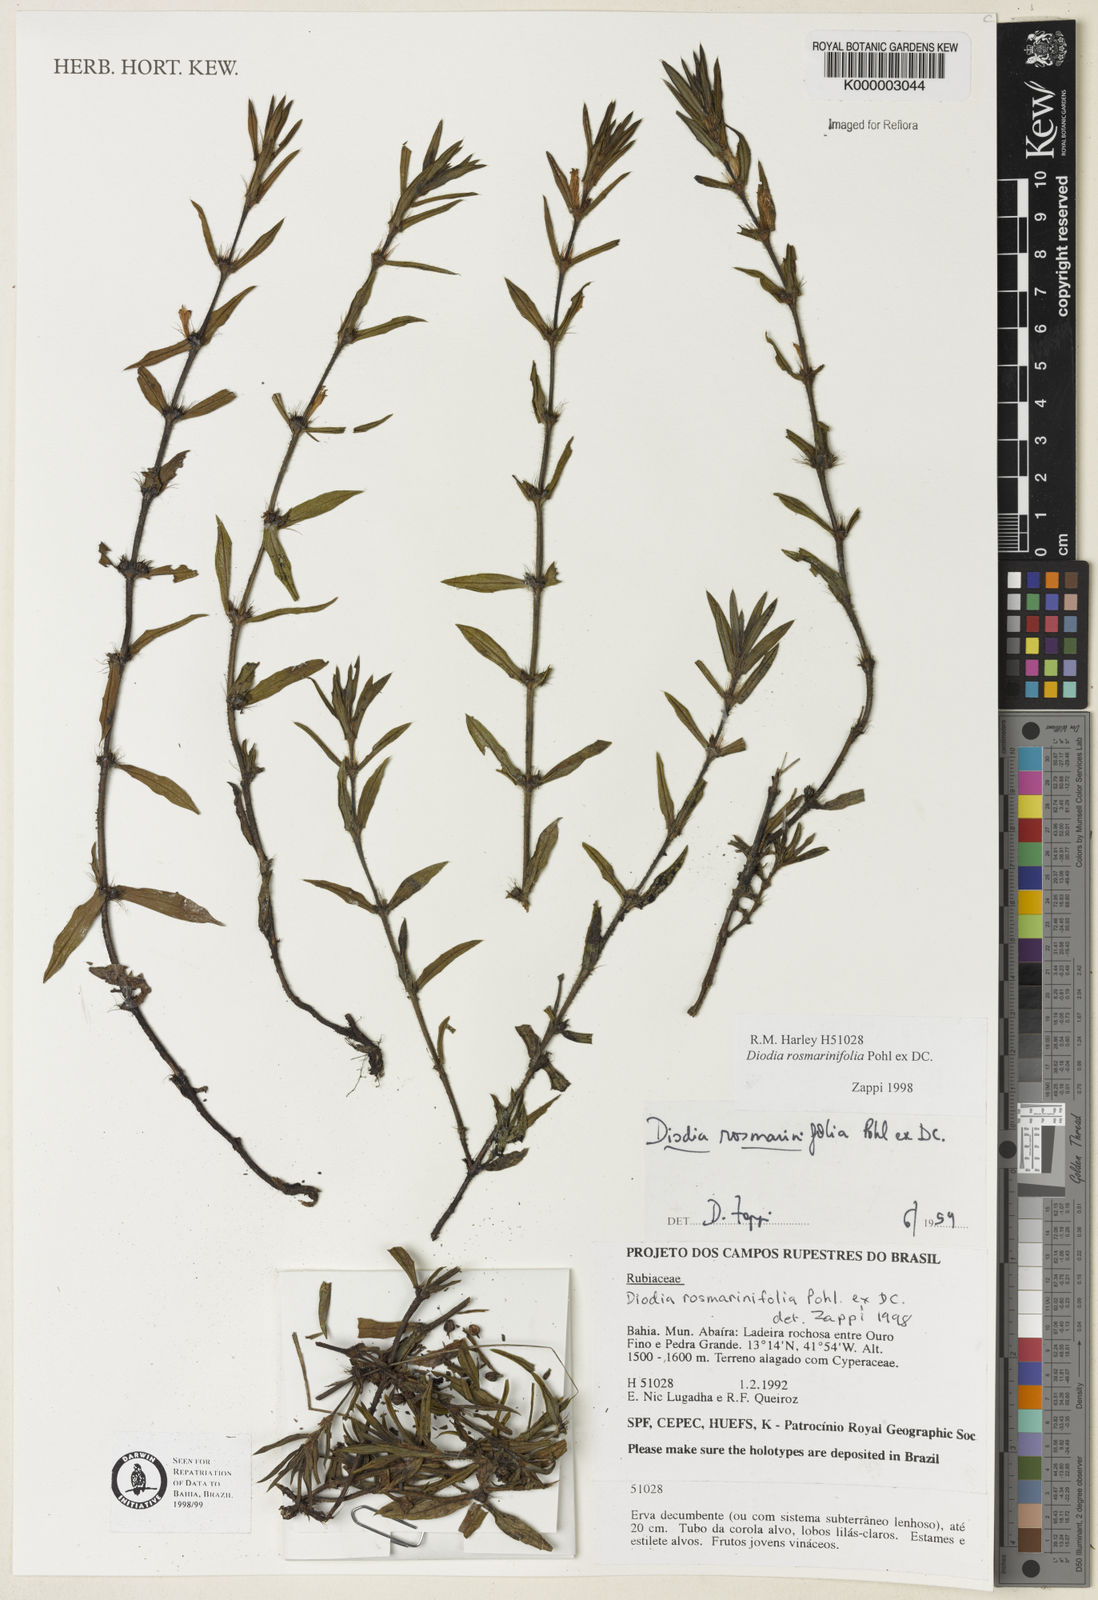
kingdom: Plantae
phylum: Tracheophyta
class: Magnoliopsida
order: Gentianales
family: Rubiaceae
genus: Hexasepalum
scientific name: Hexasepalum
